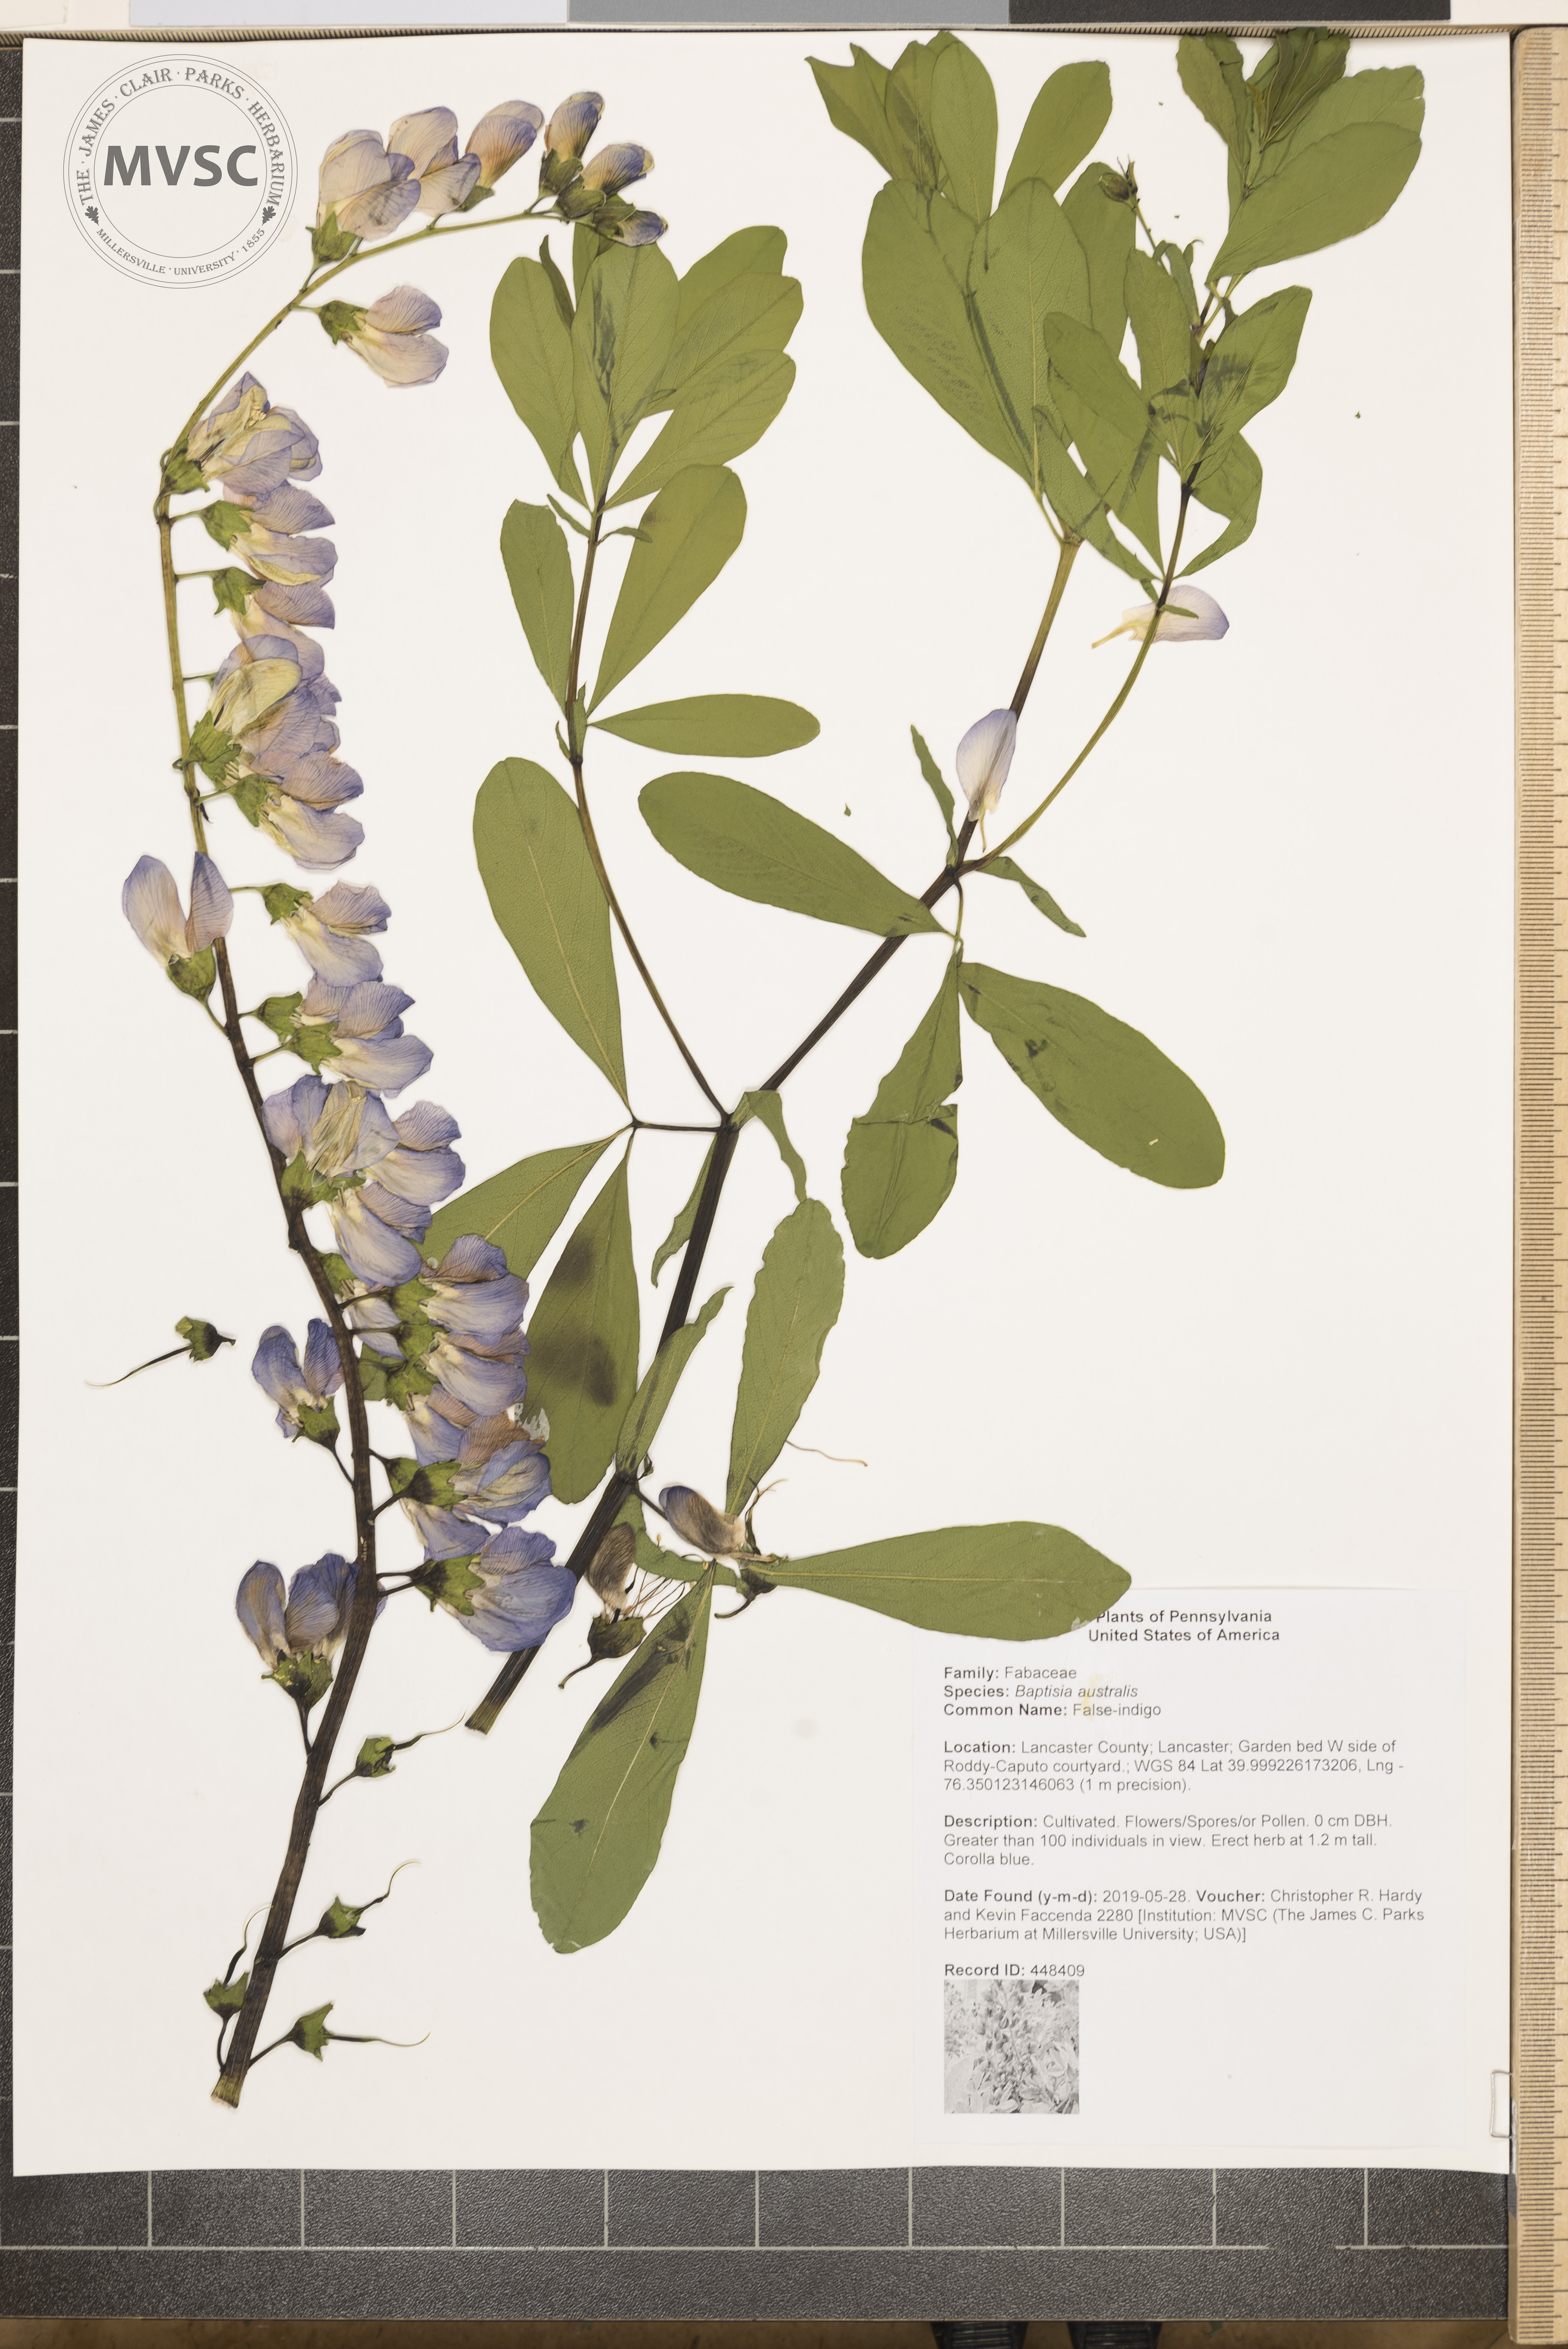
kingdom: Plantae
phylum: Tracheophyta
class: Magnoliopsida
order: Fabales
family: Fabaceae
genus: Baptisia
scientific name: Baptisia australis
